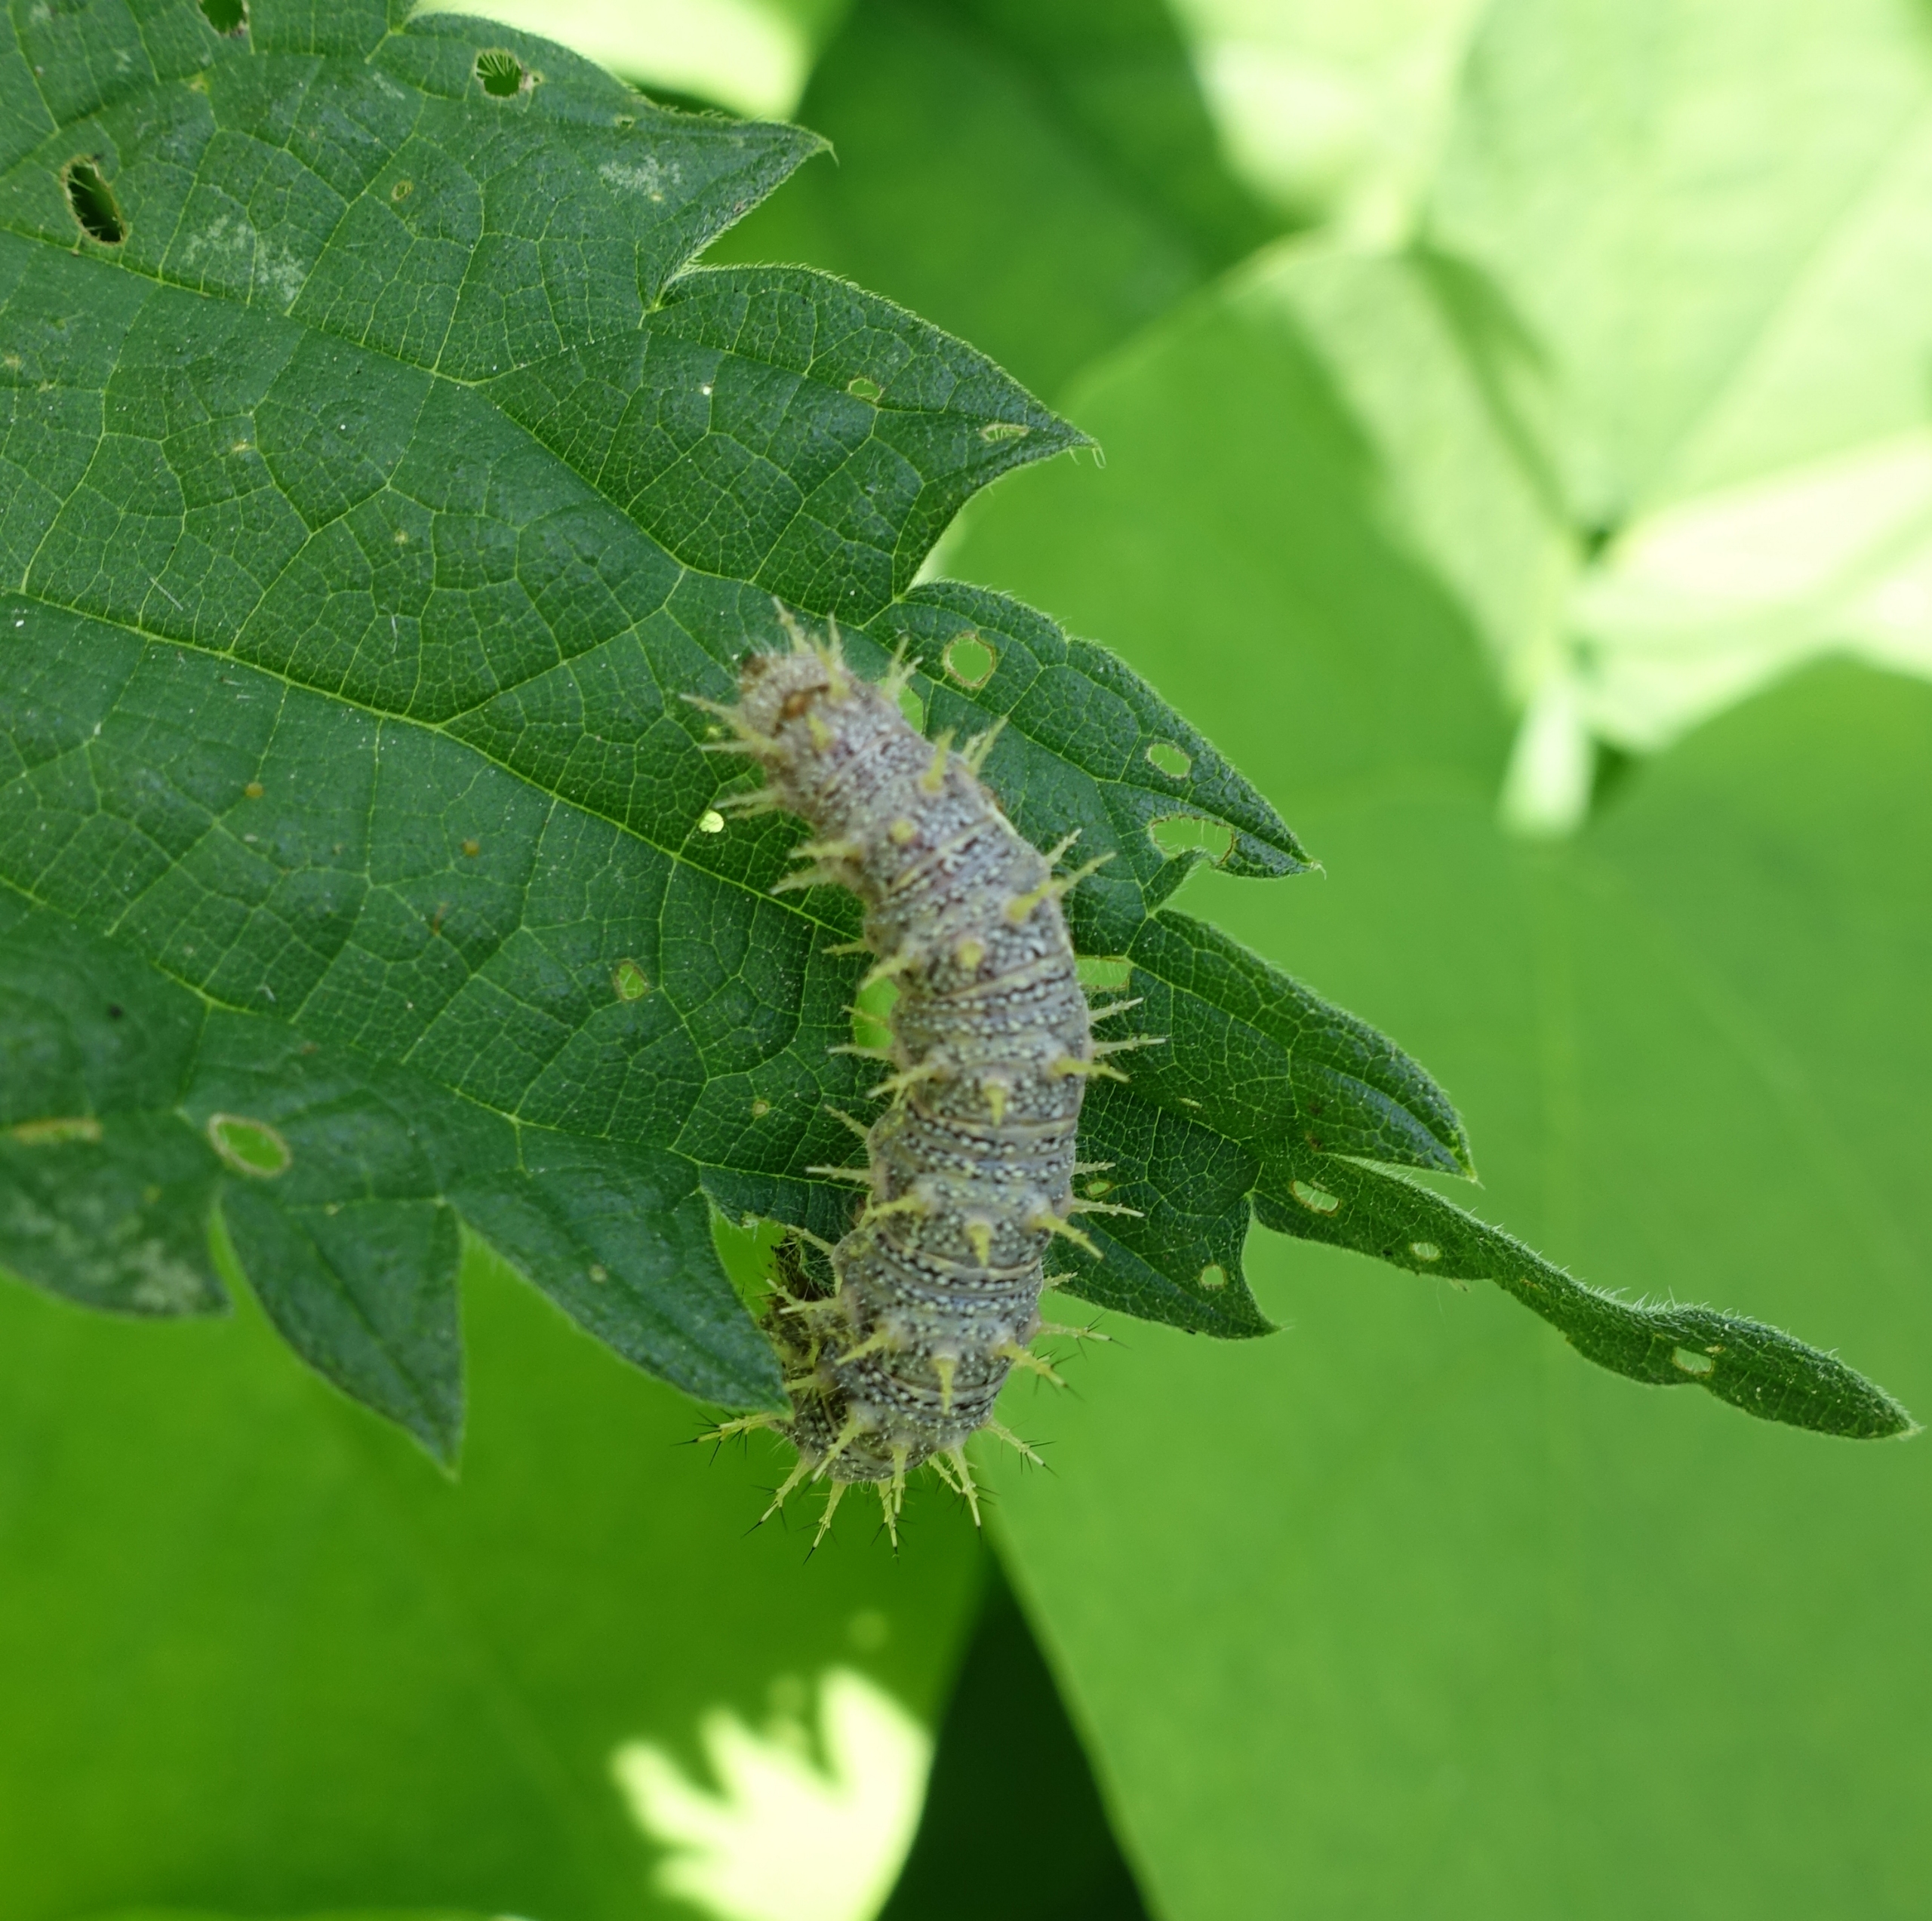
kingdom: Animalia
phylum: Arthropoda
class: Insecta
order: Lepidoptera
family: Nymphalidae
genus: Vanessa
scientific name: Vanessa atalanta
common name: Admiral
